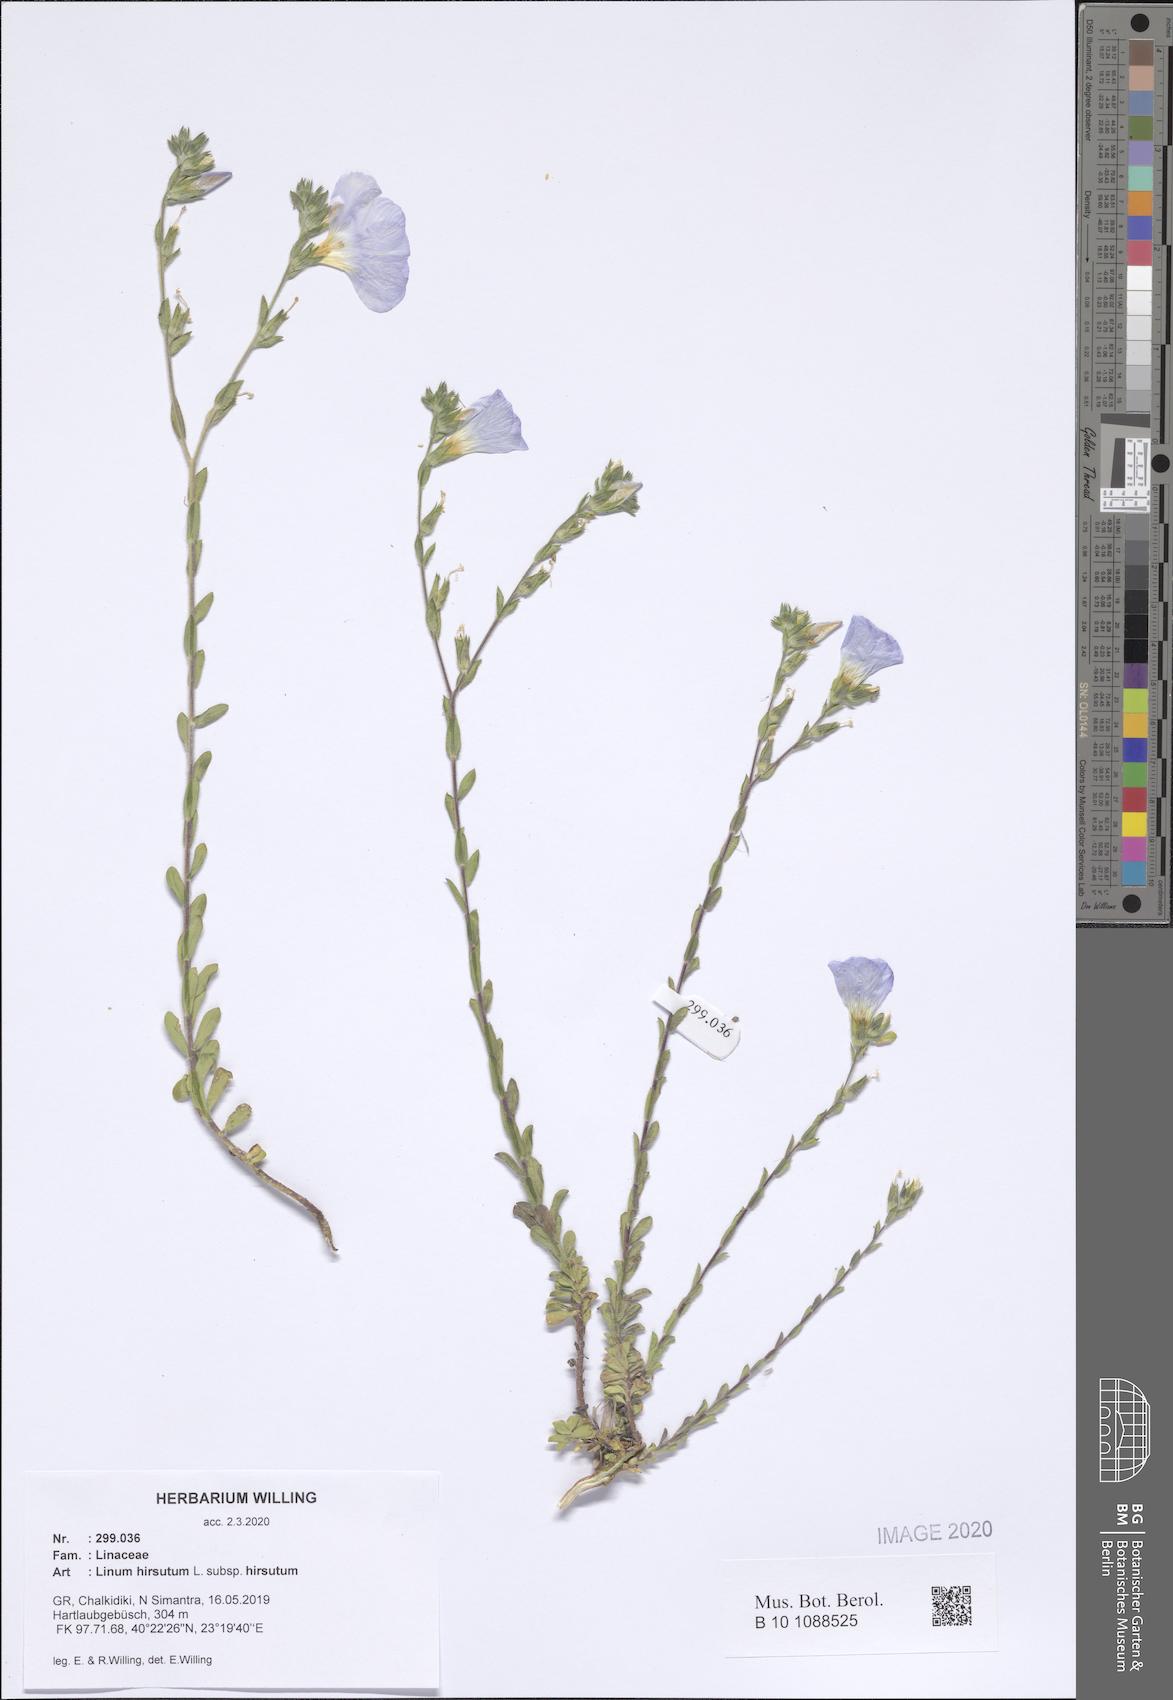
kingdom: Plantae
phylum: Tracheophyta
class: Magnoliopsida
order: Malpighiales
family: Linaceae
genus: Linum
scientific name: Linum hirsutum
